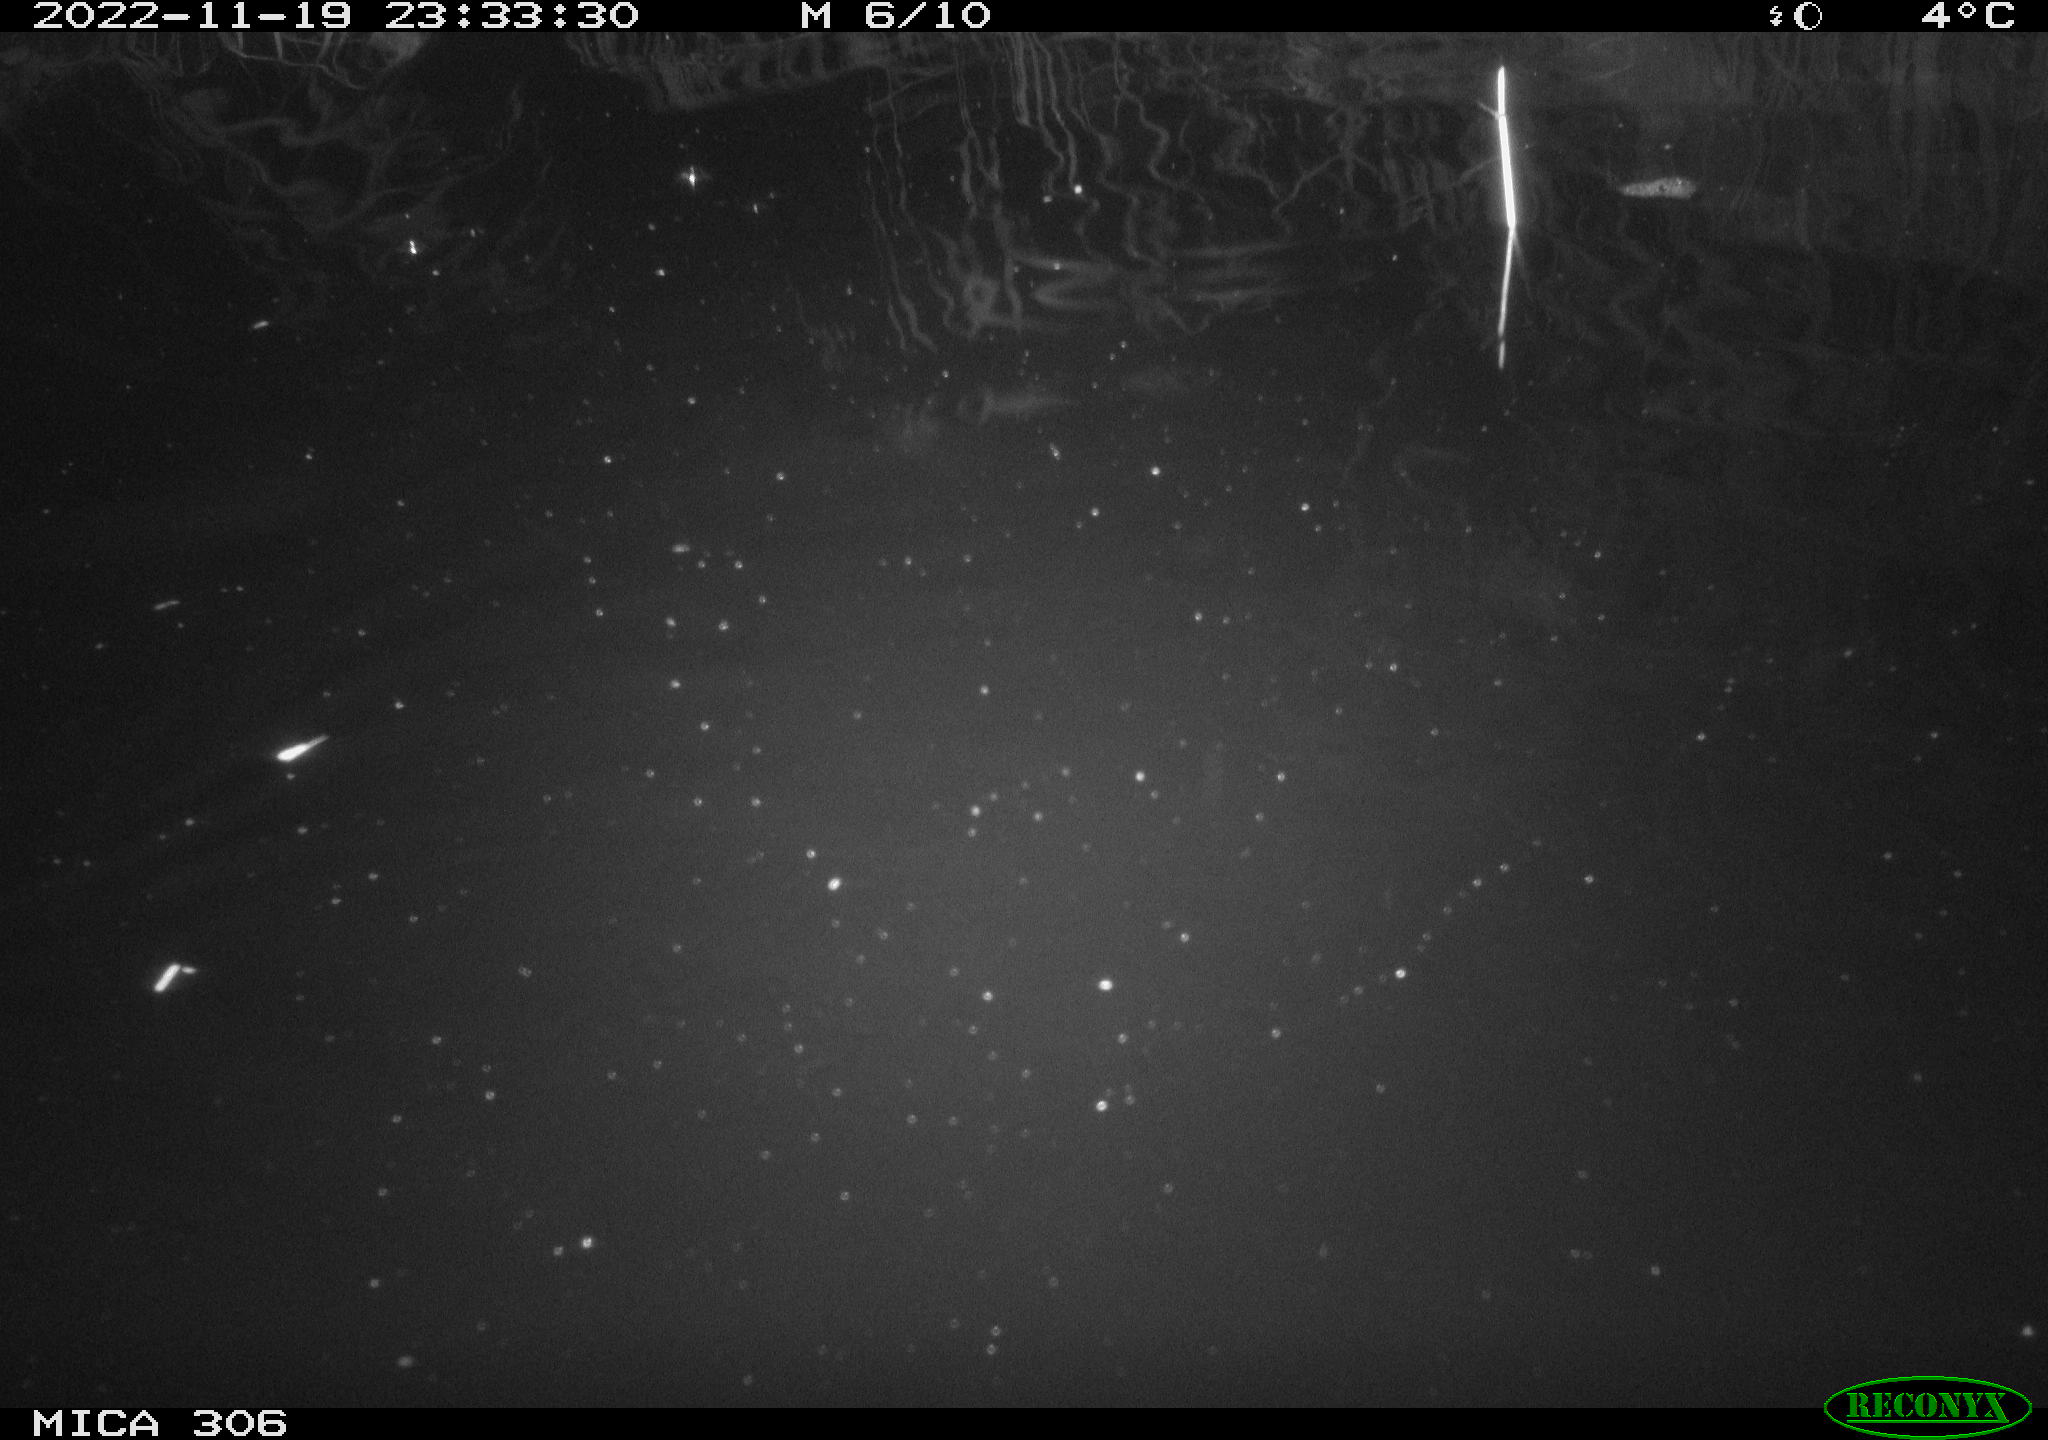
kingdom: Animalia
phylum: Chordata
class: Mammalia
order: Rodentia
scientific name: Rodentia
